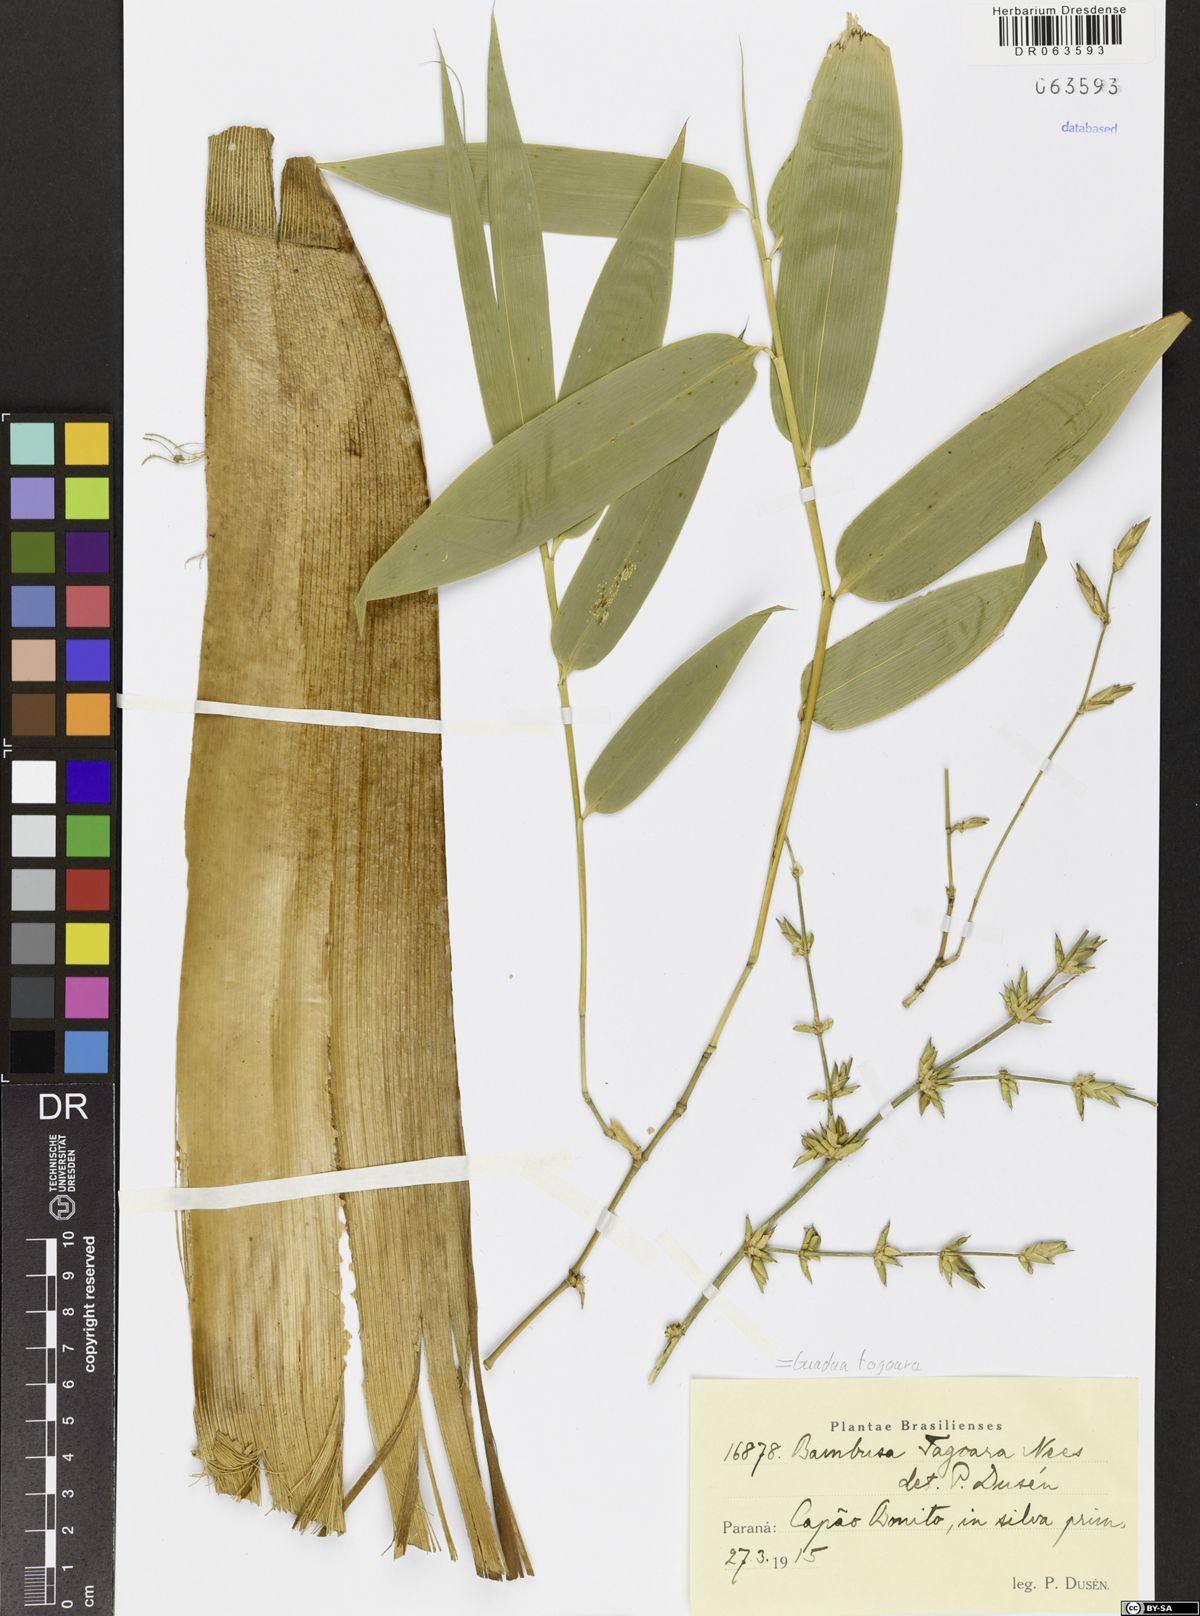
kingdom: Plantae
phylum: Tracheophyta
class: Liliopsida
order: Poales
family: Poaceae
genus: Guadua
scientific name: Guadua tagoara
